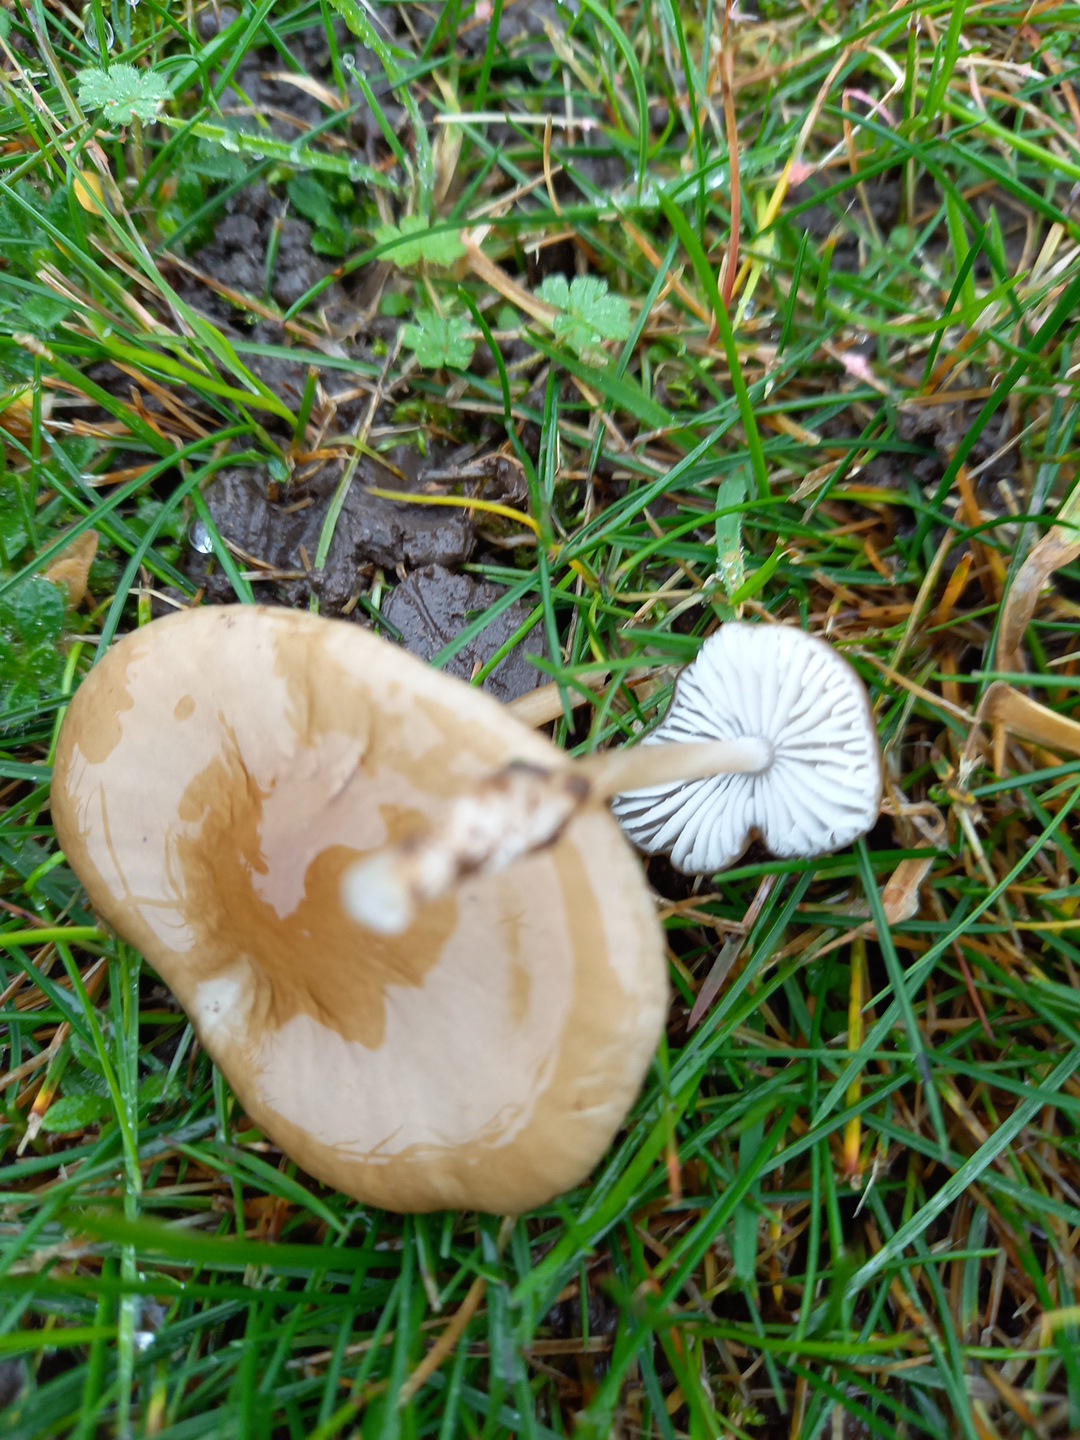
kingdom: Fungi
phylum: Basidiomycota
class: Agaricomycetes
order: Agaricales
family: Physalacriaceae
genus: Hymenopellis
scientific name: Hymenopellis radicata
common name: almindelig pælerodshat
